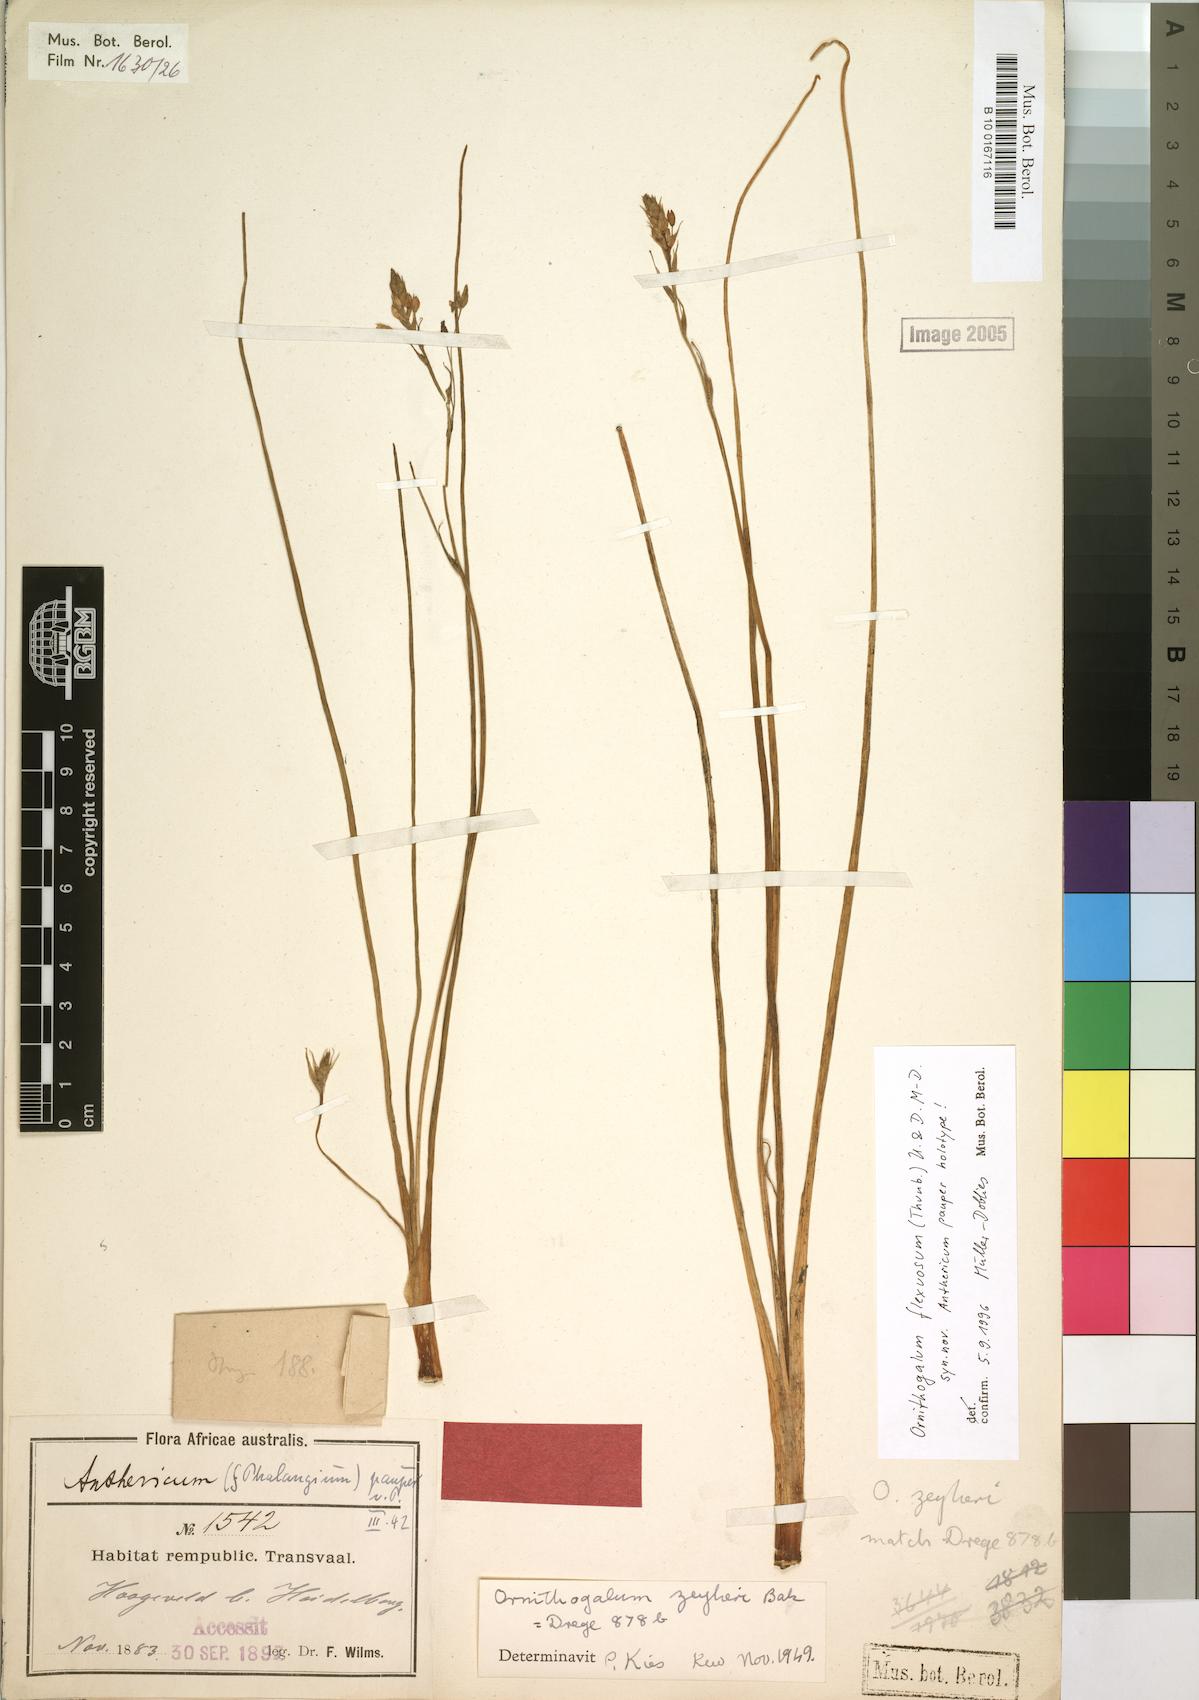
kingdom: Plantae
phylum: Tracheophyta
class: Liliopsida
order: Asparagales
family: Asparagaceae
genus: Ornithogalum
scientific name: Ornithogalum flexuosum
